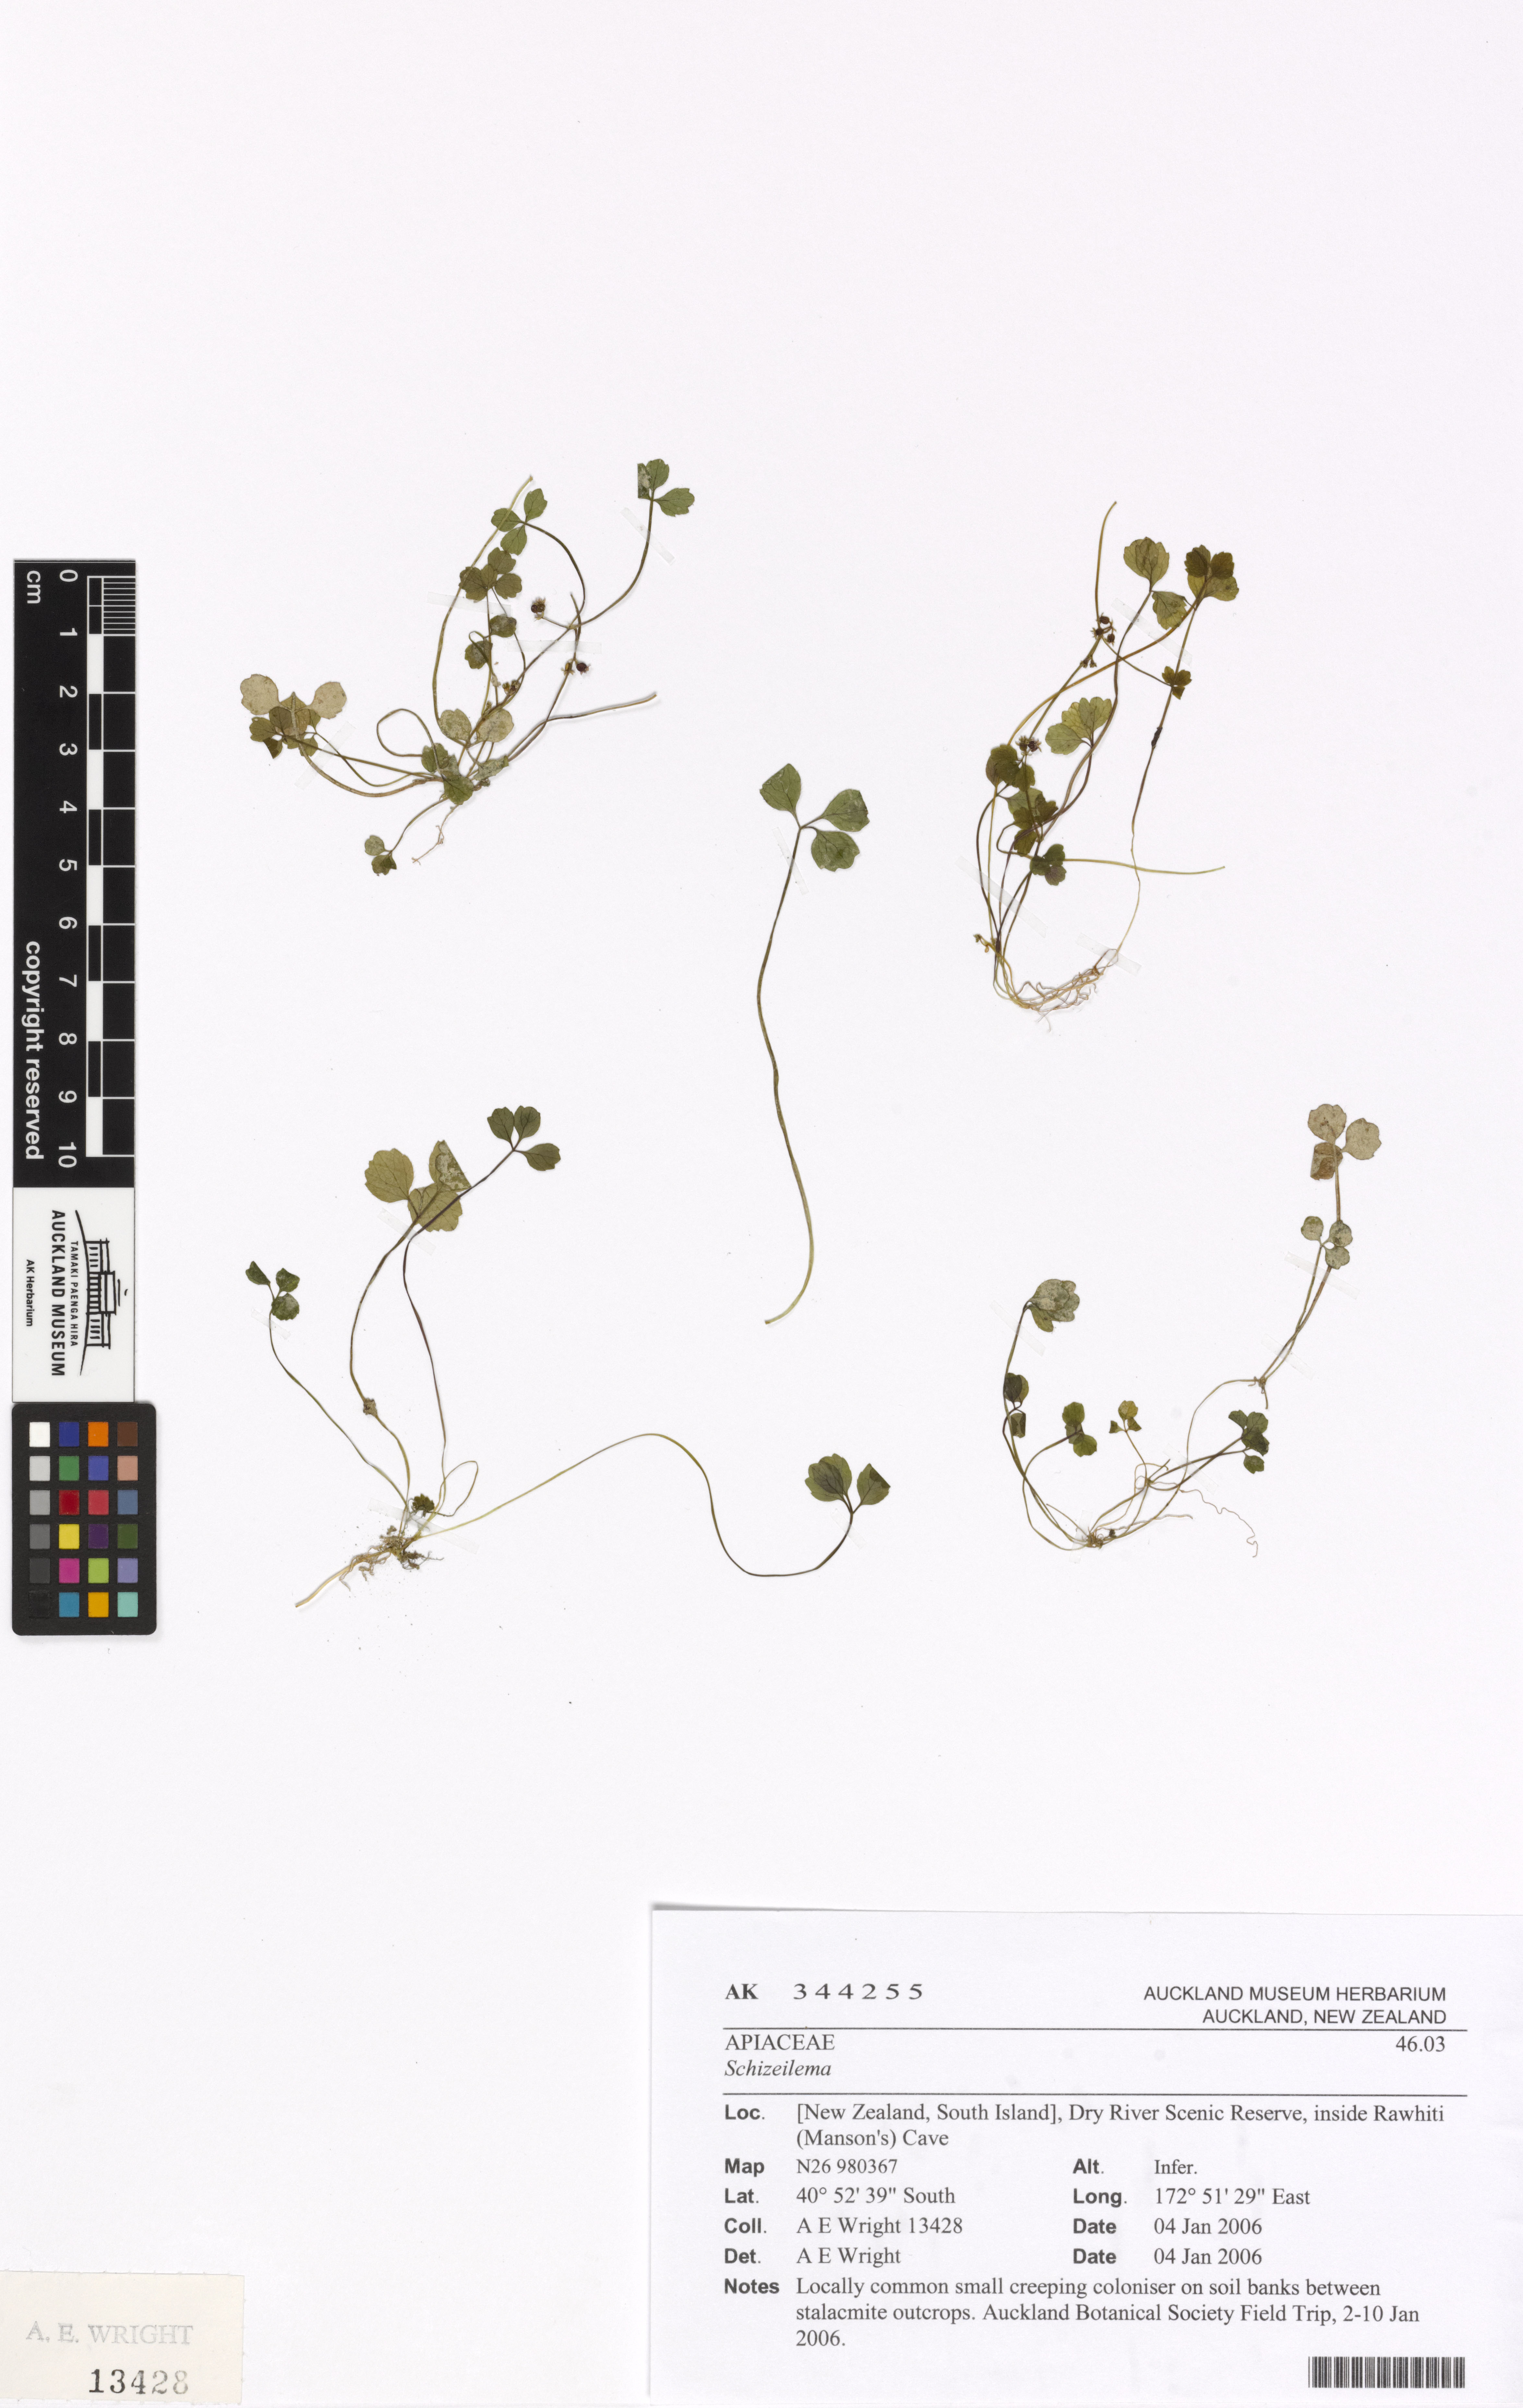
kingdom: Plantae
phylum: Tracheophyta
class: Magnoliopsida
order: Apiales
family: Apiaceae
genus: Azorella
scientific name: Azorella
